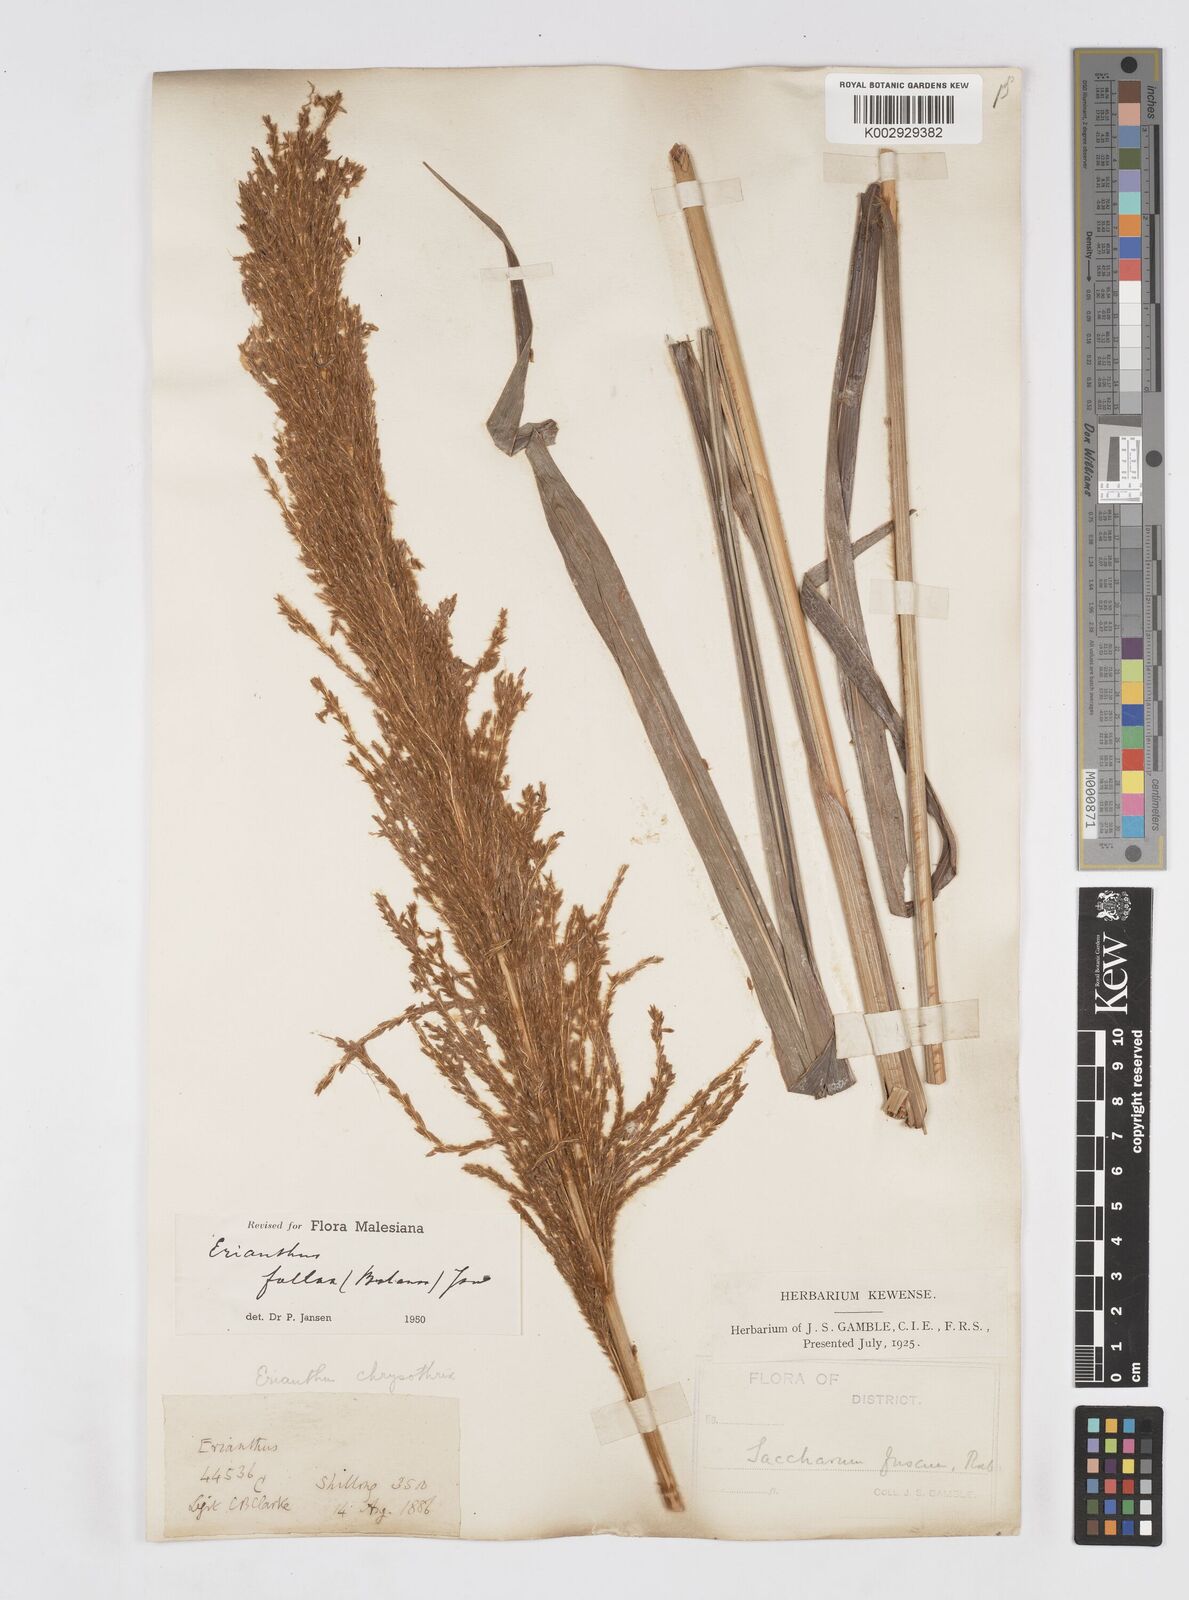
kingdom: Plantae
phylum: Tracheophyta
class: Liliopsida
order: Poales
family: Poaceae
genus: Narenga
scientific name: Narenga fallax
